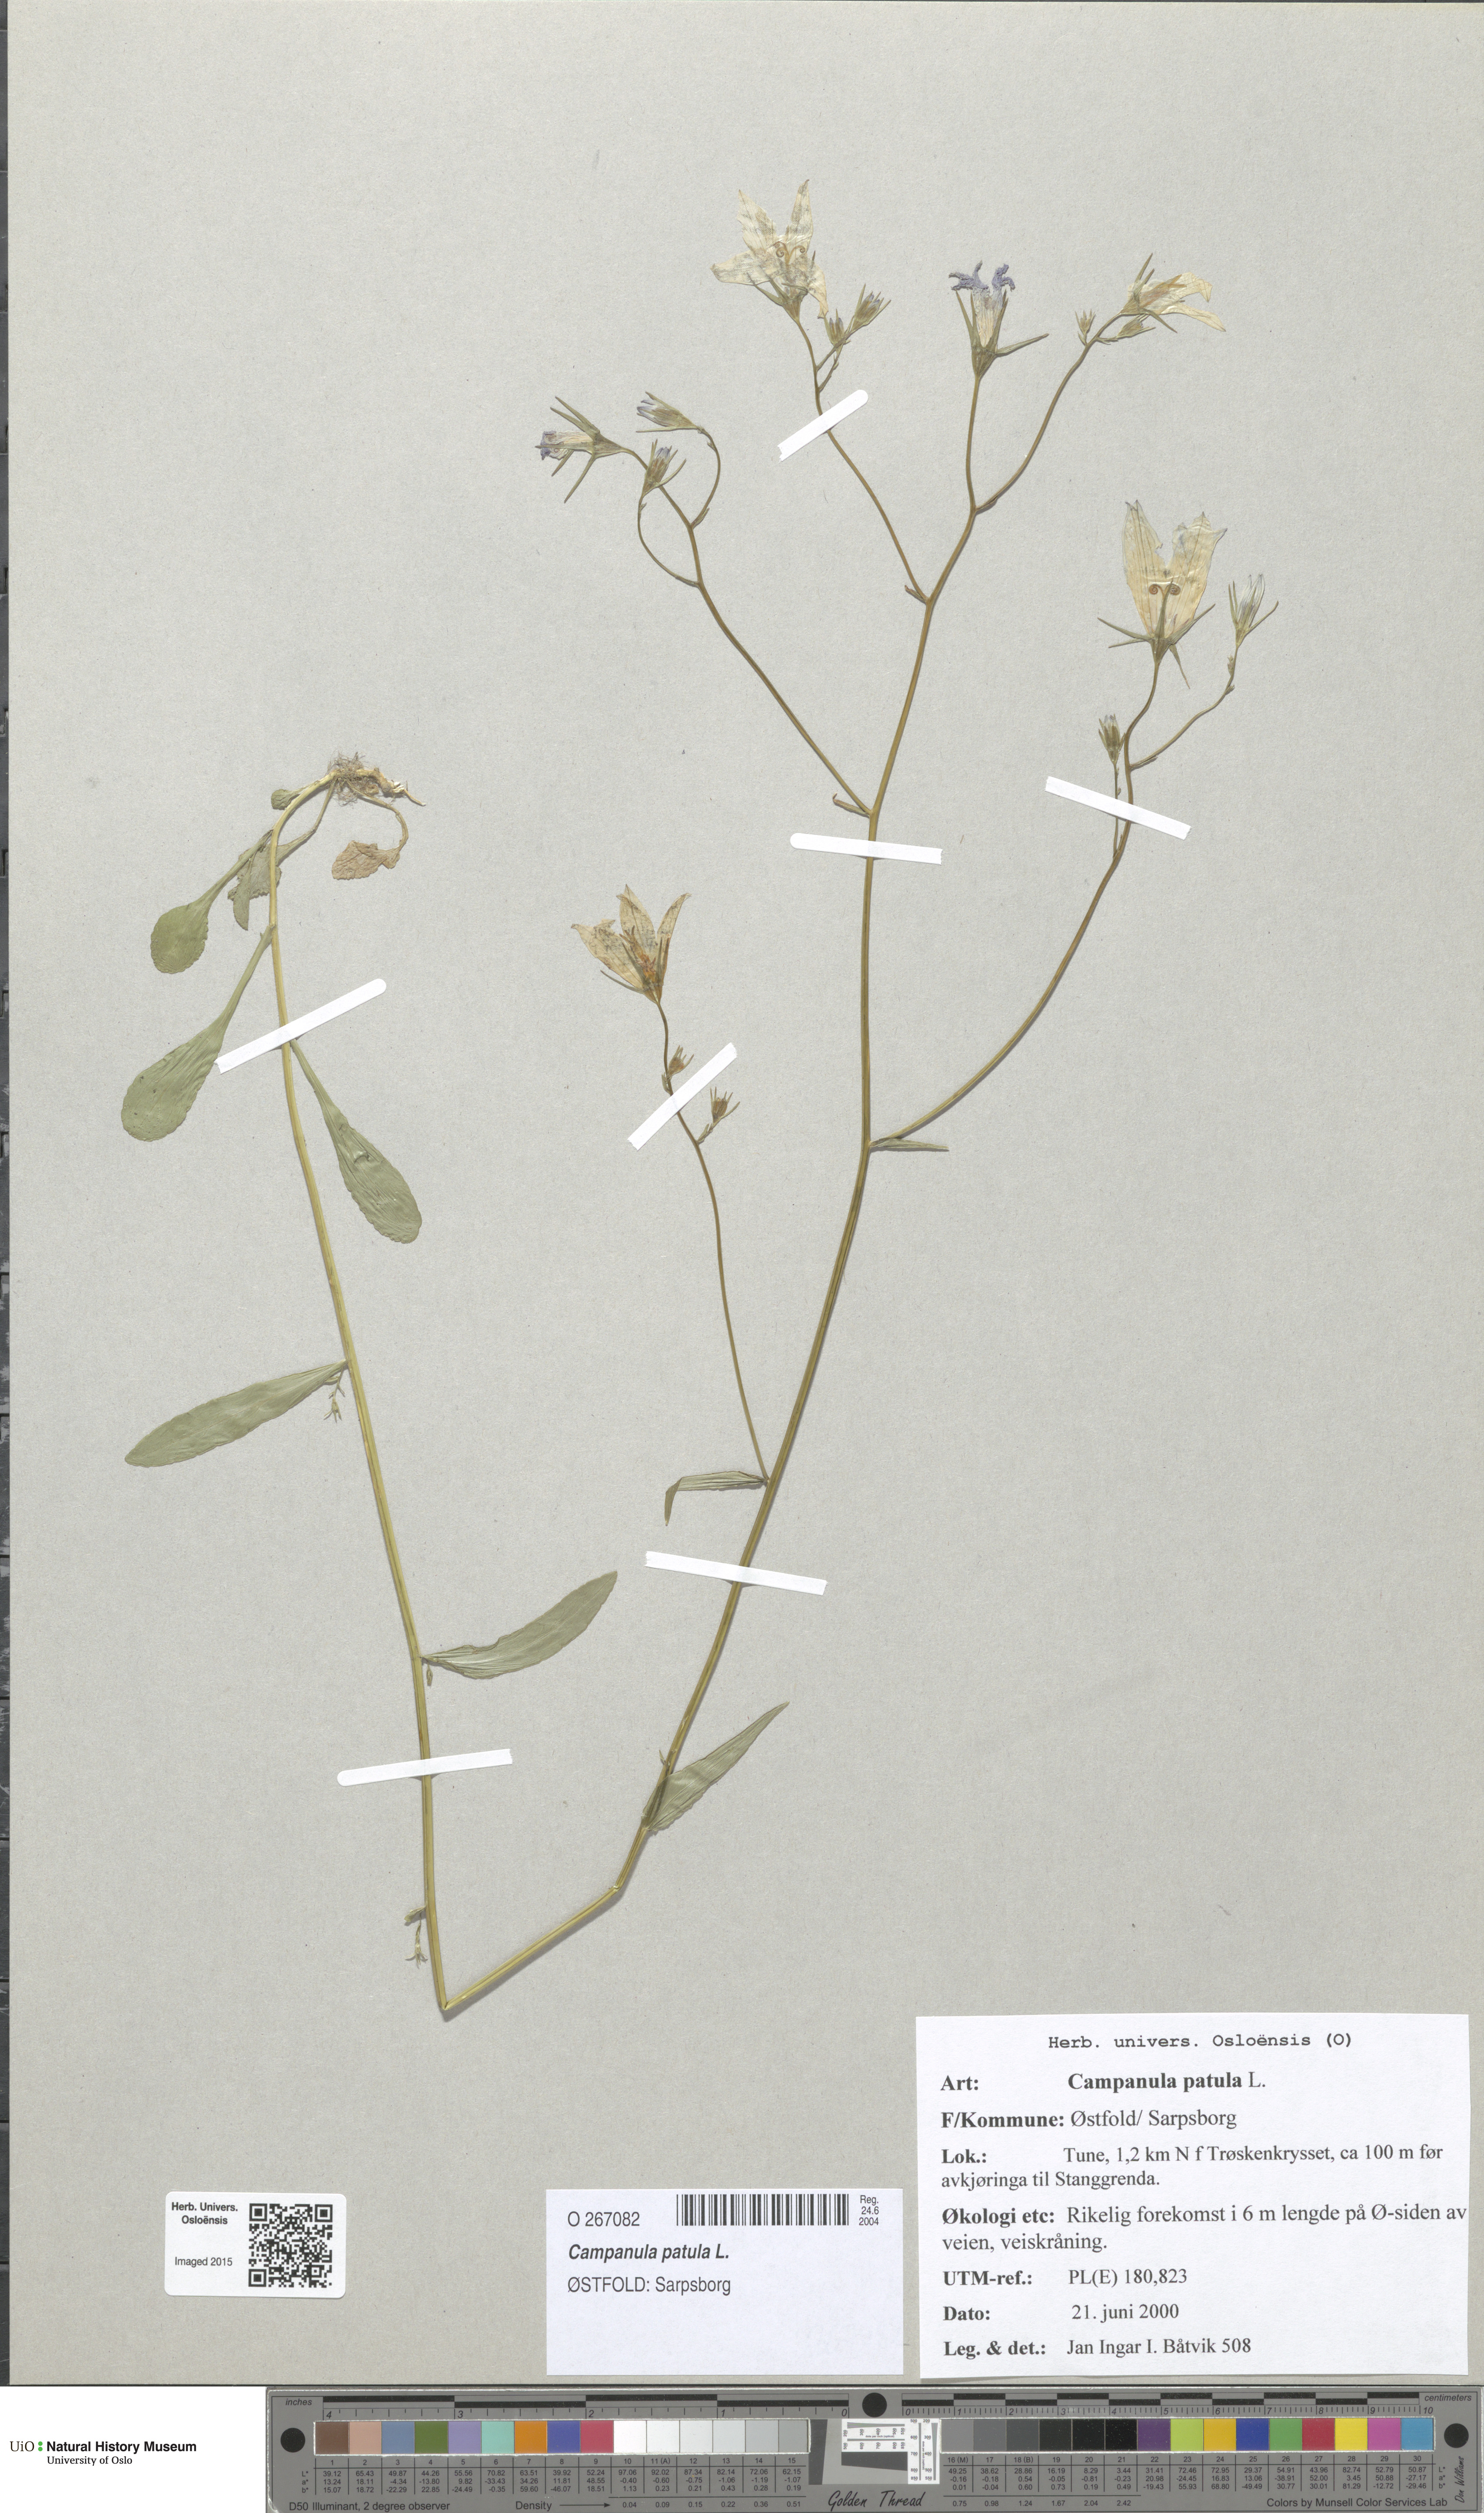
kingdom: Plantae
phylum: Tracheophyta
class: Magnoliopsida
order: Asterales
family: Campanulaceae
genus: Campanula
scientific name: Campanula patula
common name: Spreading bellflower
